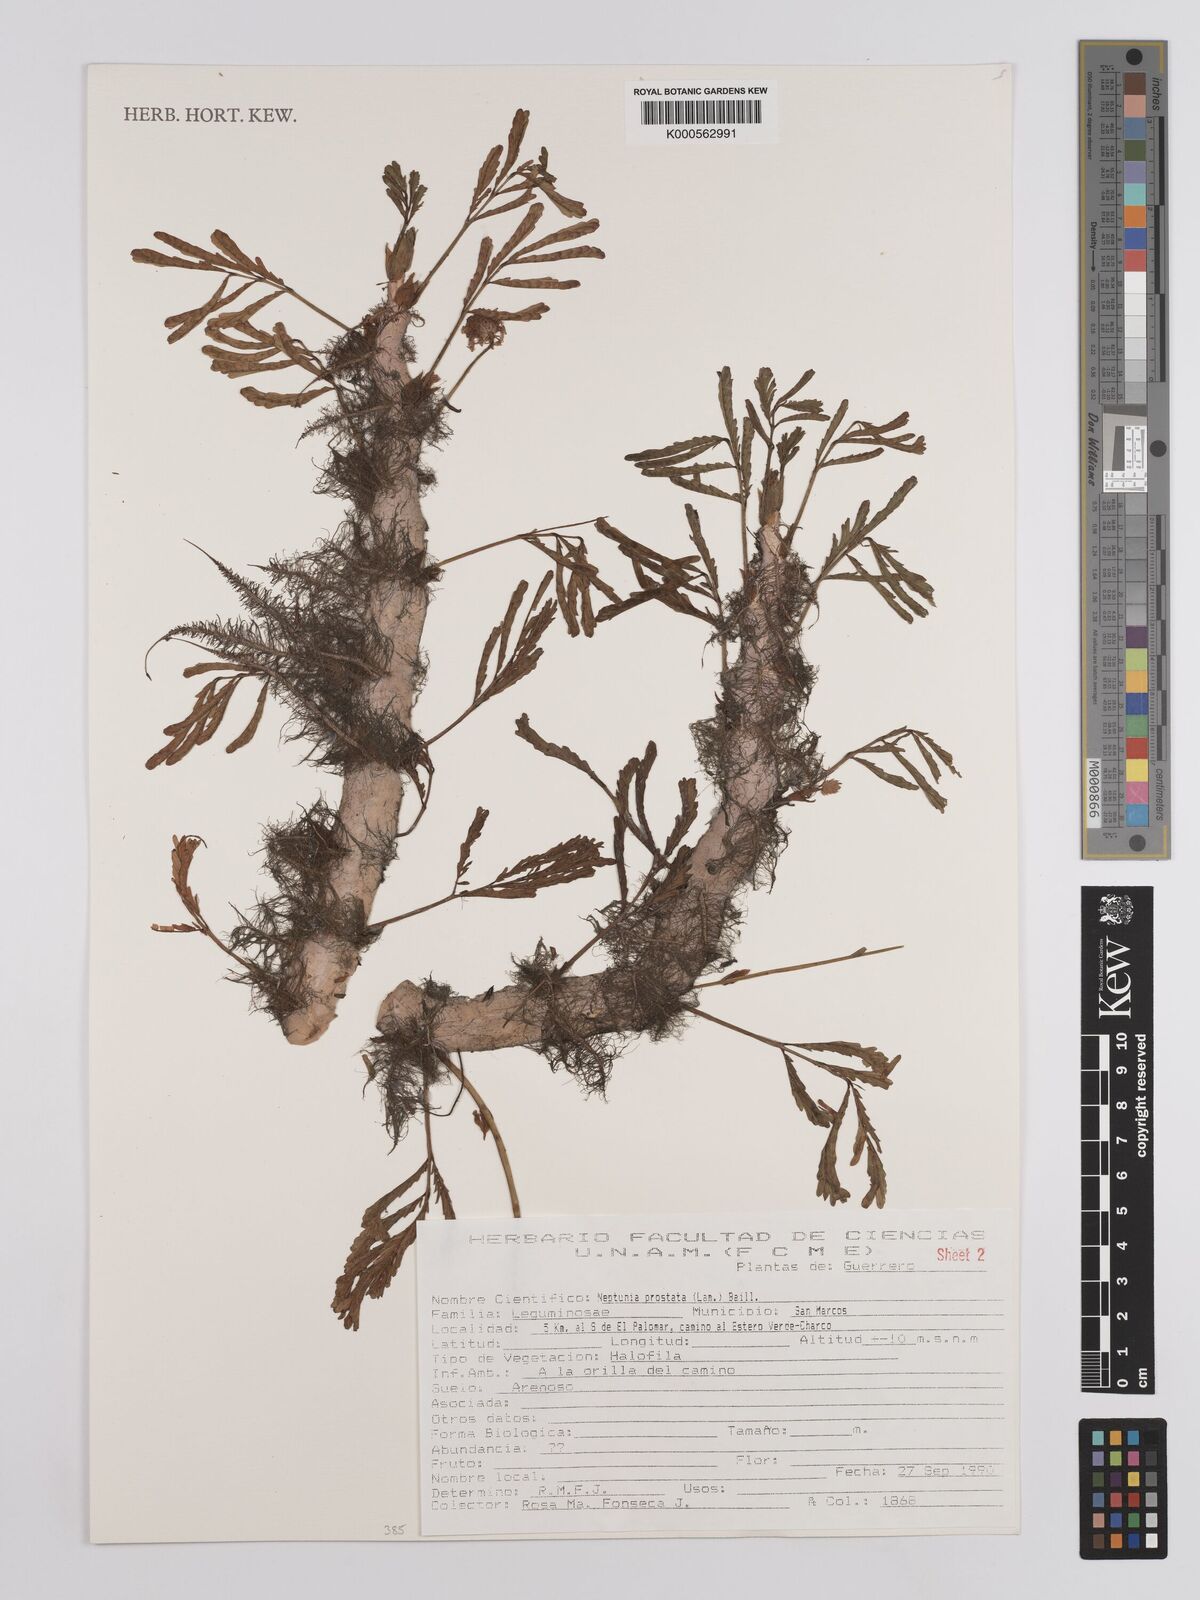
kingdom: Plantae
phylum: Tracheophyta
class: Magnoliopsida
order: Fabales
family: Fabaceae
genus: Neptunia
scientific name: Neptunia prostrata
